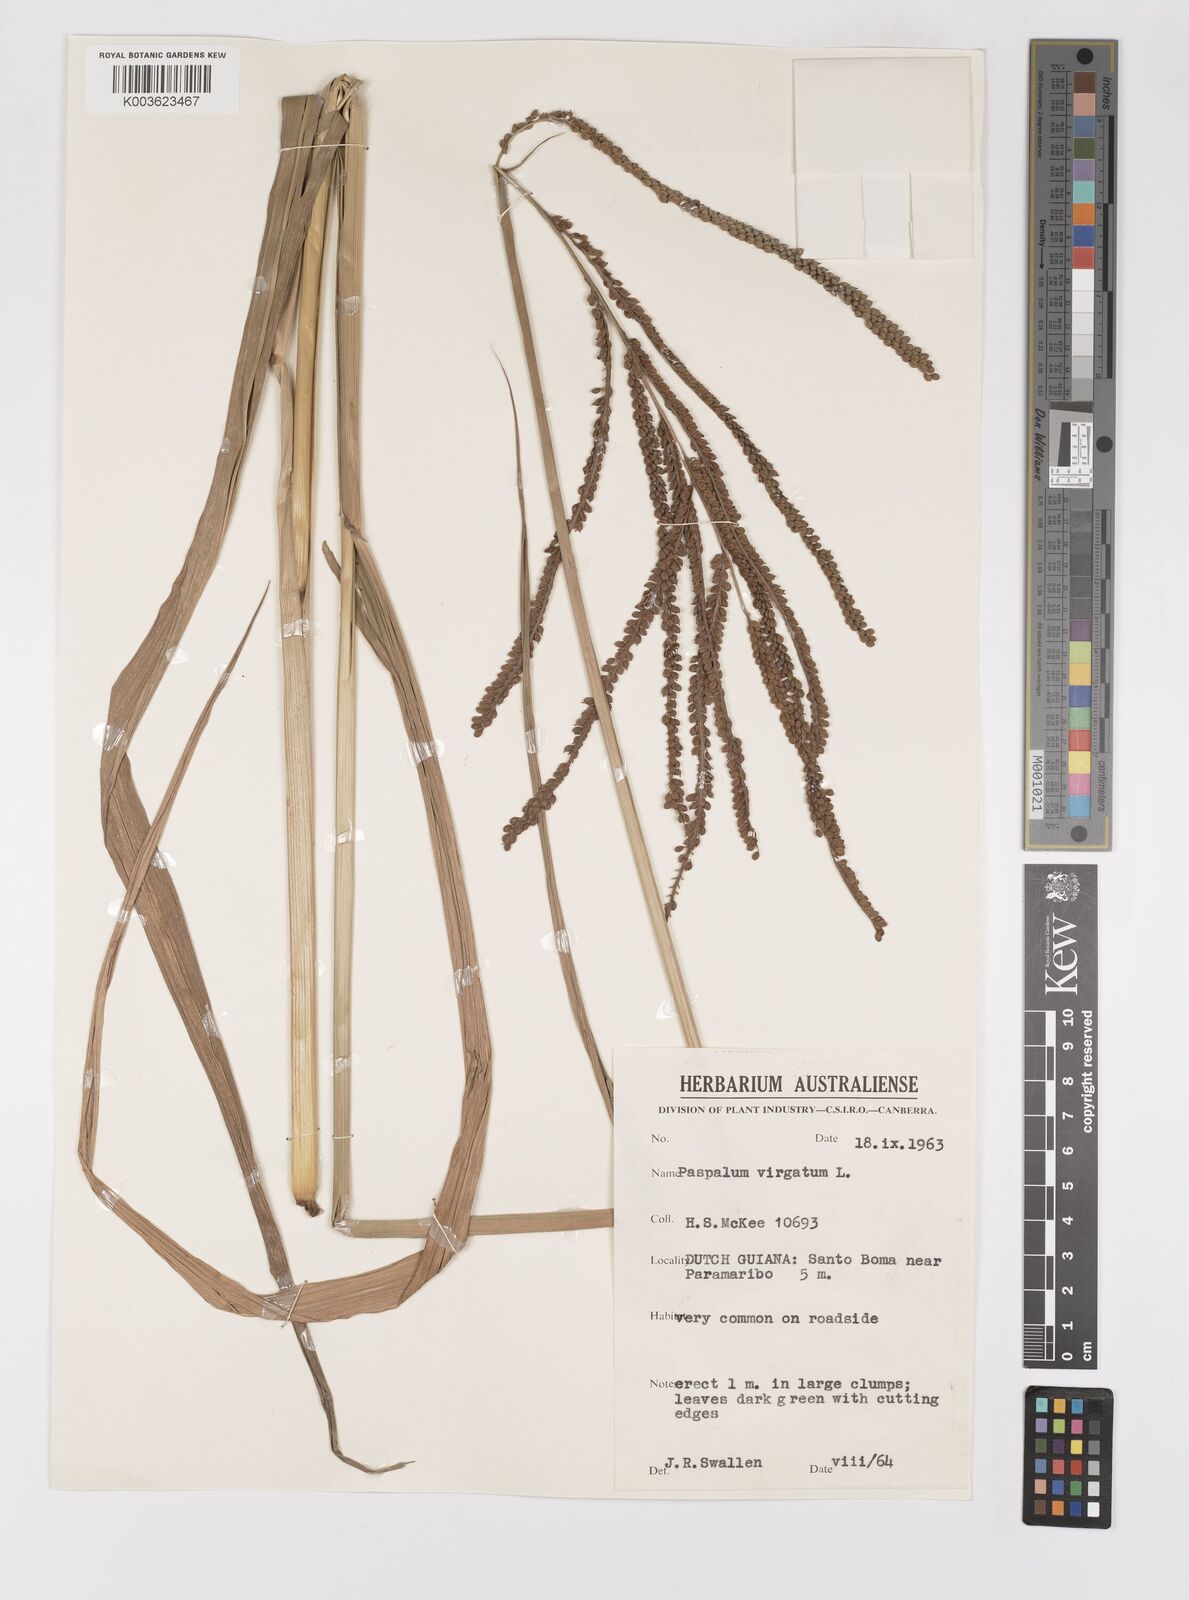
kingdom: Plantae
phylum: Tracheophyta
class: Liliopsida
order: Poales
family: Poaceae
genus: Paspalum
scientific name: Paspalum virgatum
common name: Talquezal
